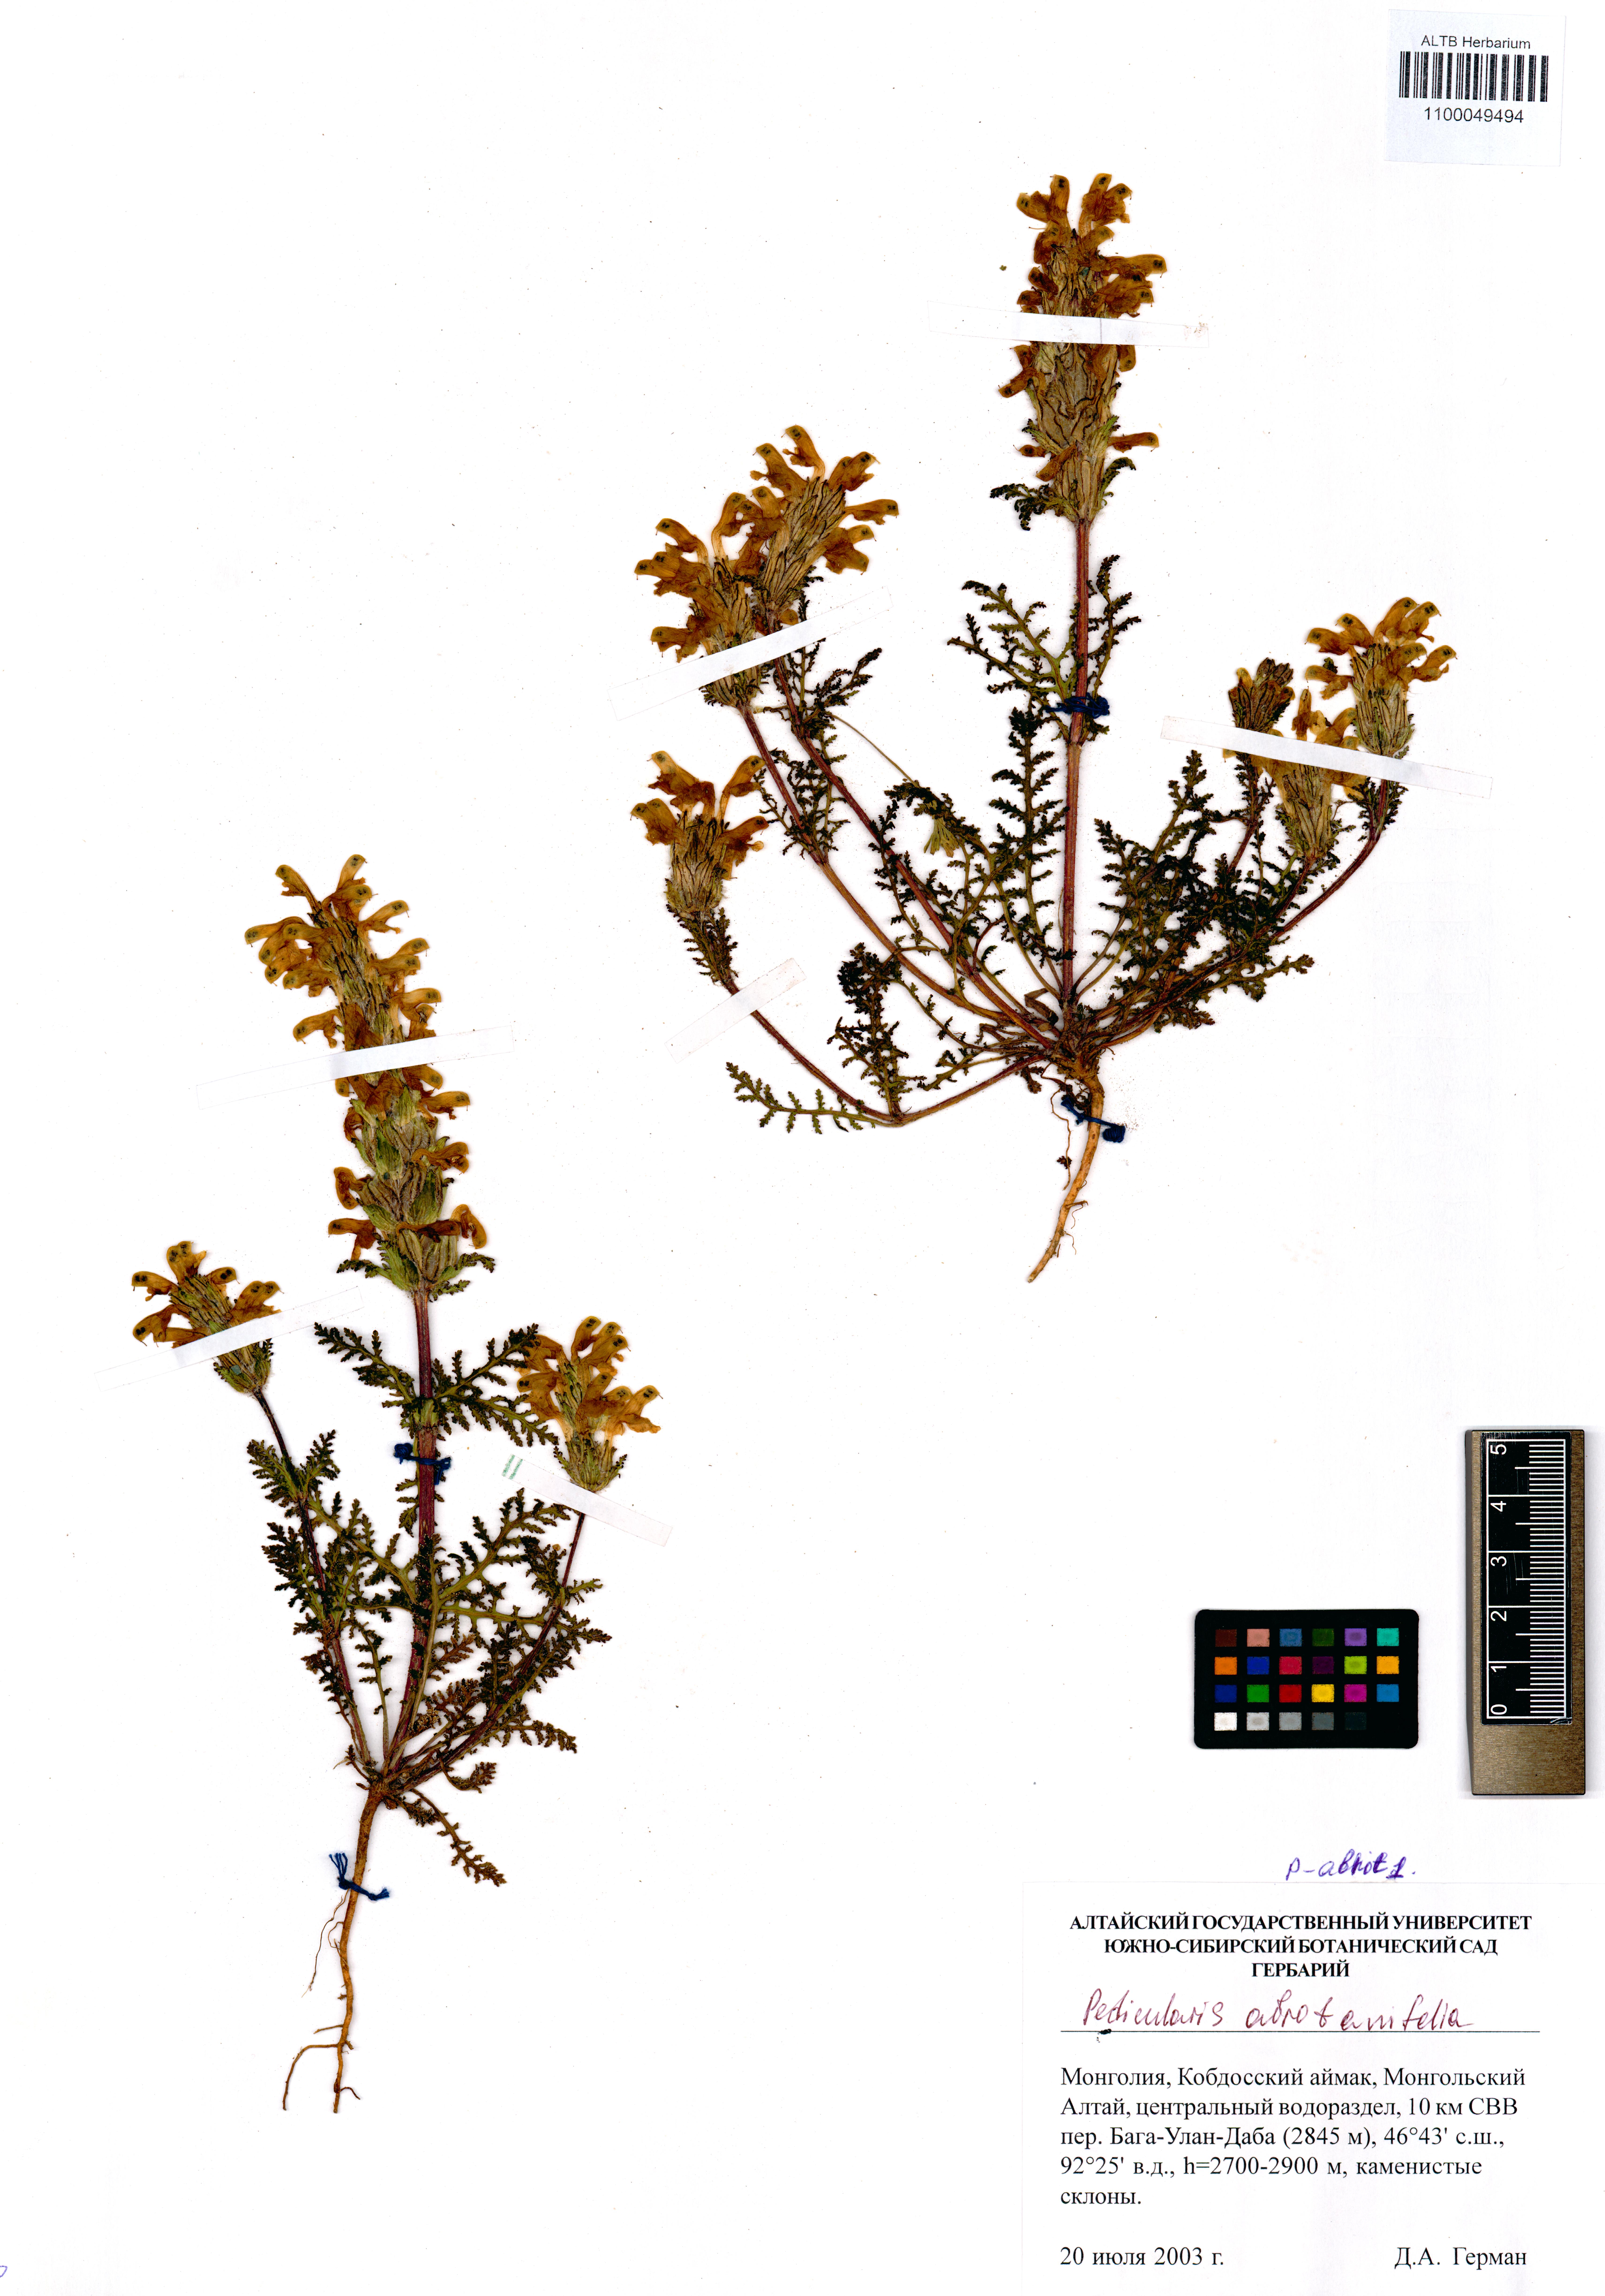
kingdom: Plantae
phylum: Tracheophyta
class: Magnoliopsida
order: Lamiales
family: Orobanchaceae
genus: Pedicularis
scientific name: Pedicularis abrotanifolia
